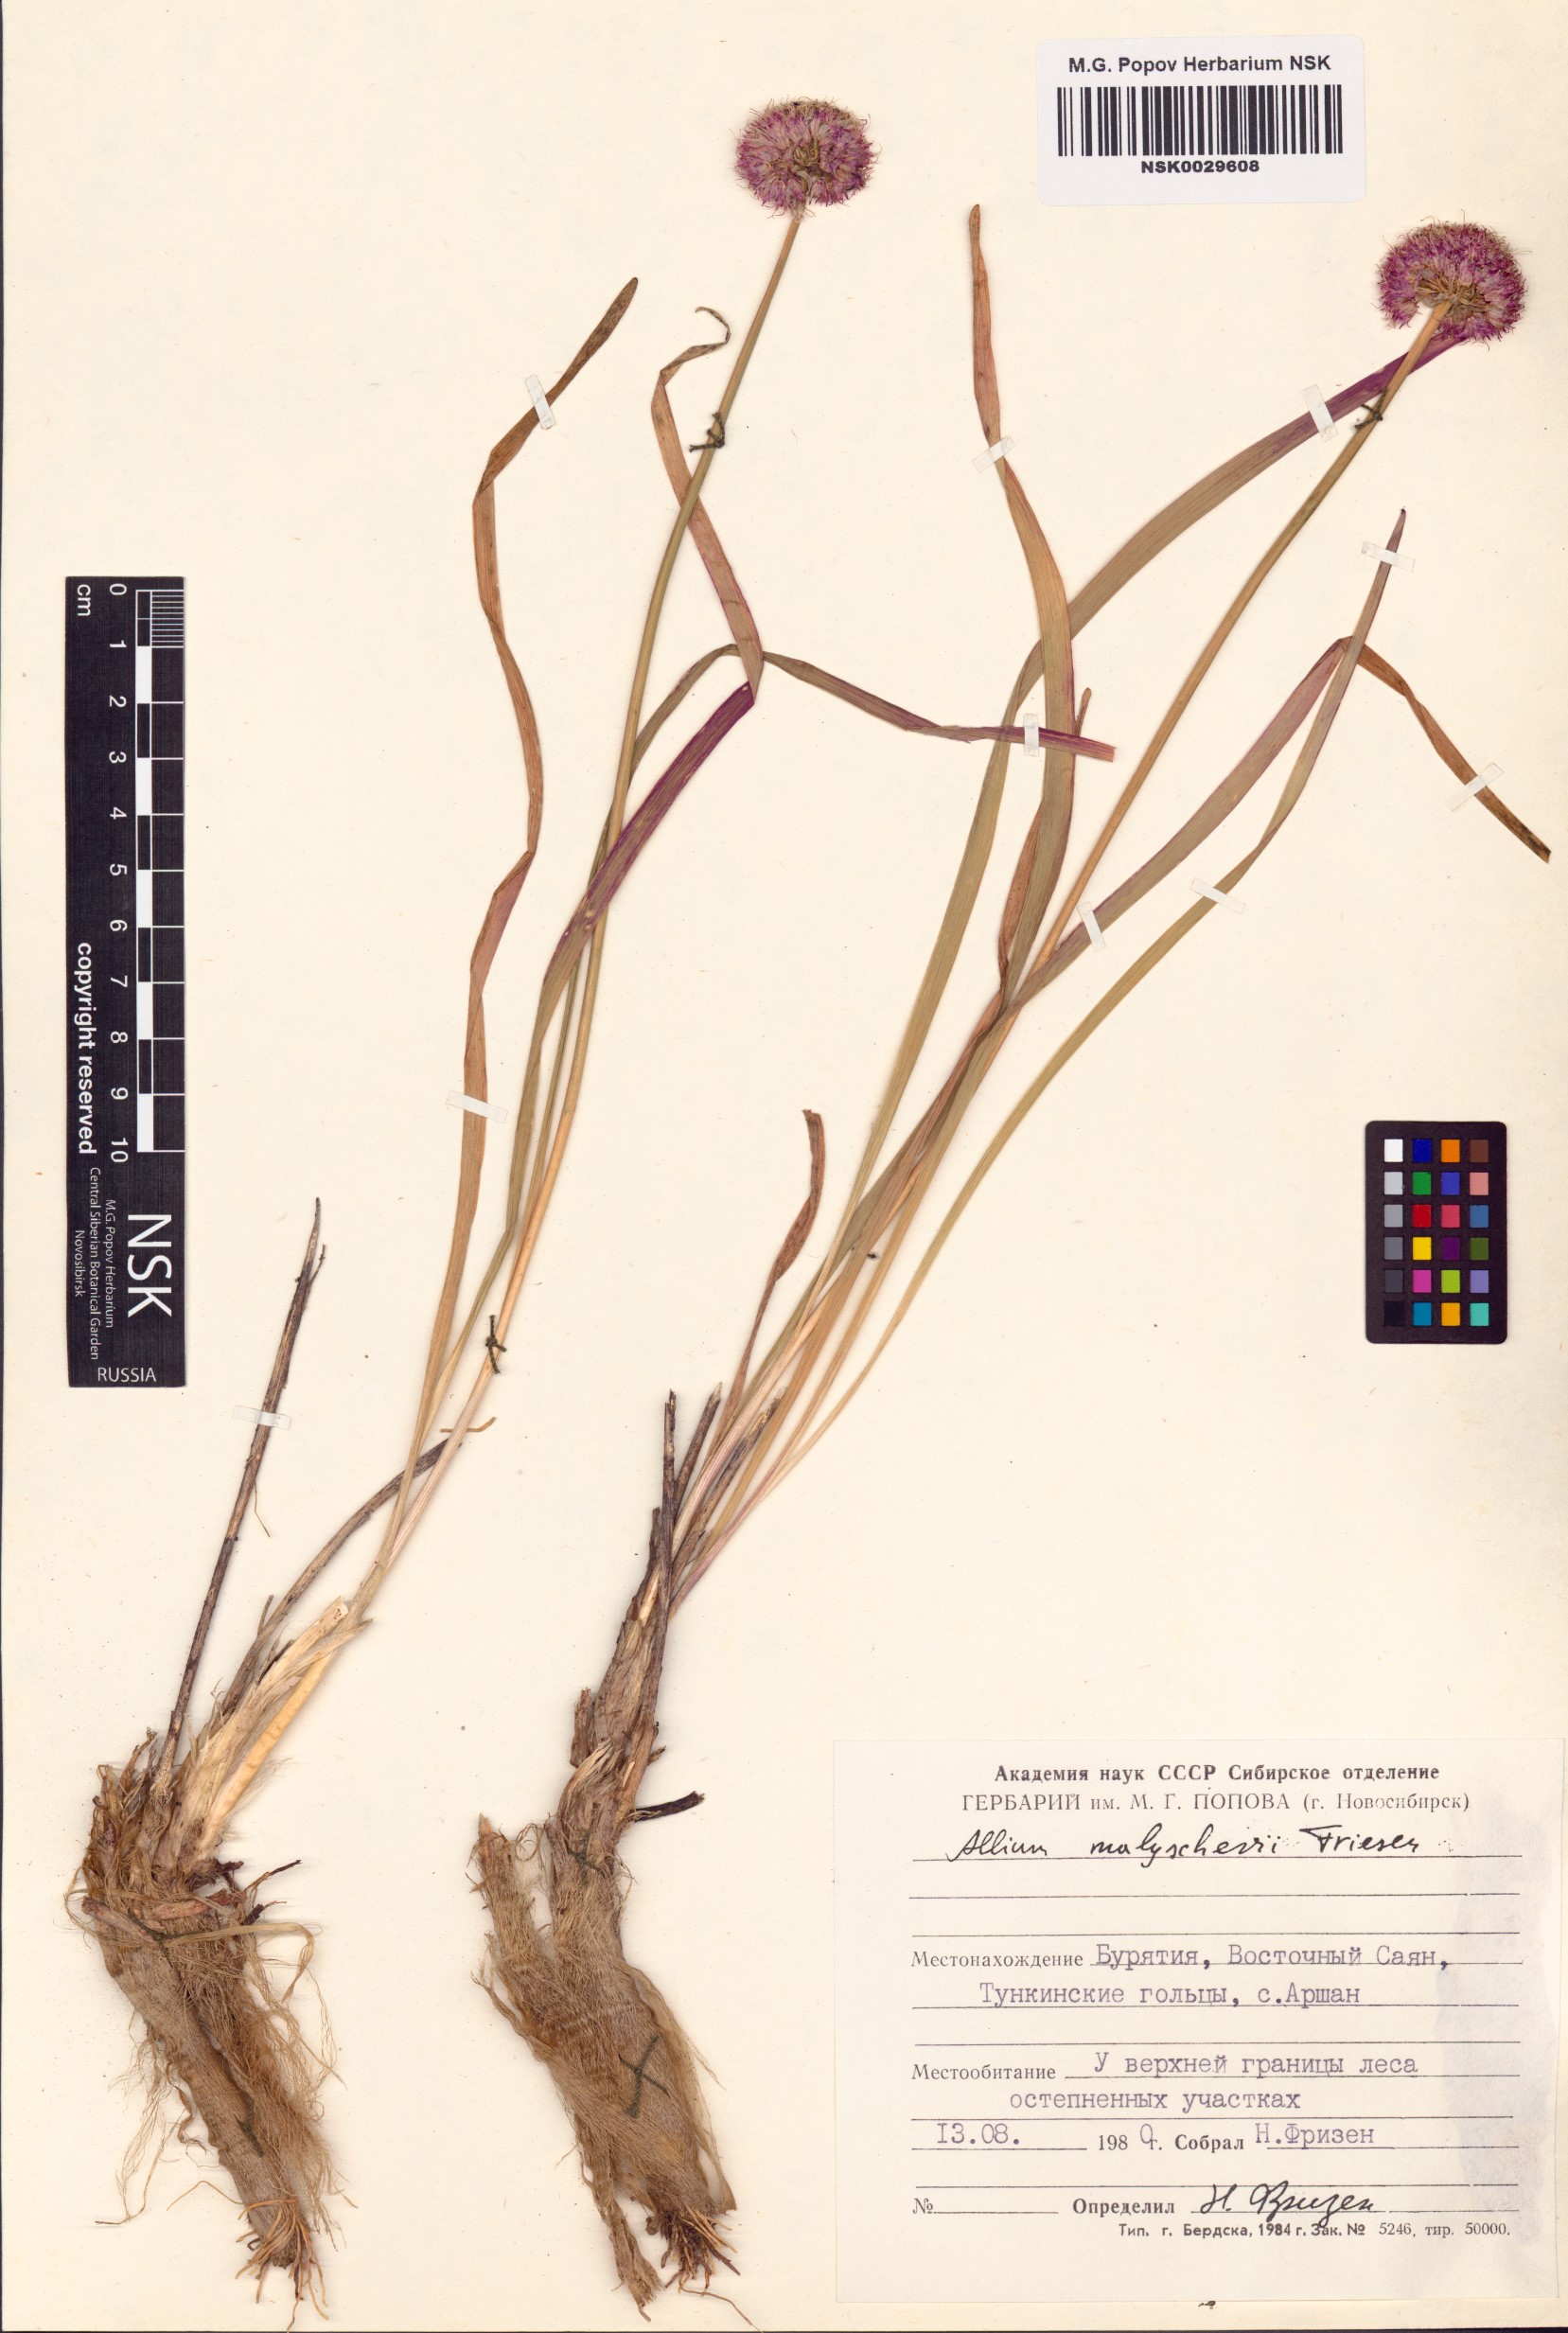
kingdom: Plantae
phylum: Tracheophyta
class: Liliopsida
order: Asparagales
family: Amaryllidaceae
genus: Allium
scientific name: Allium malyschevii
